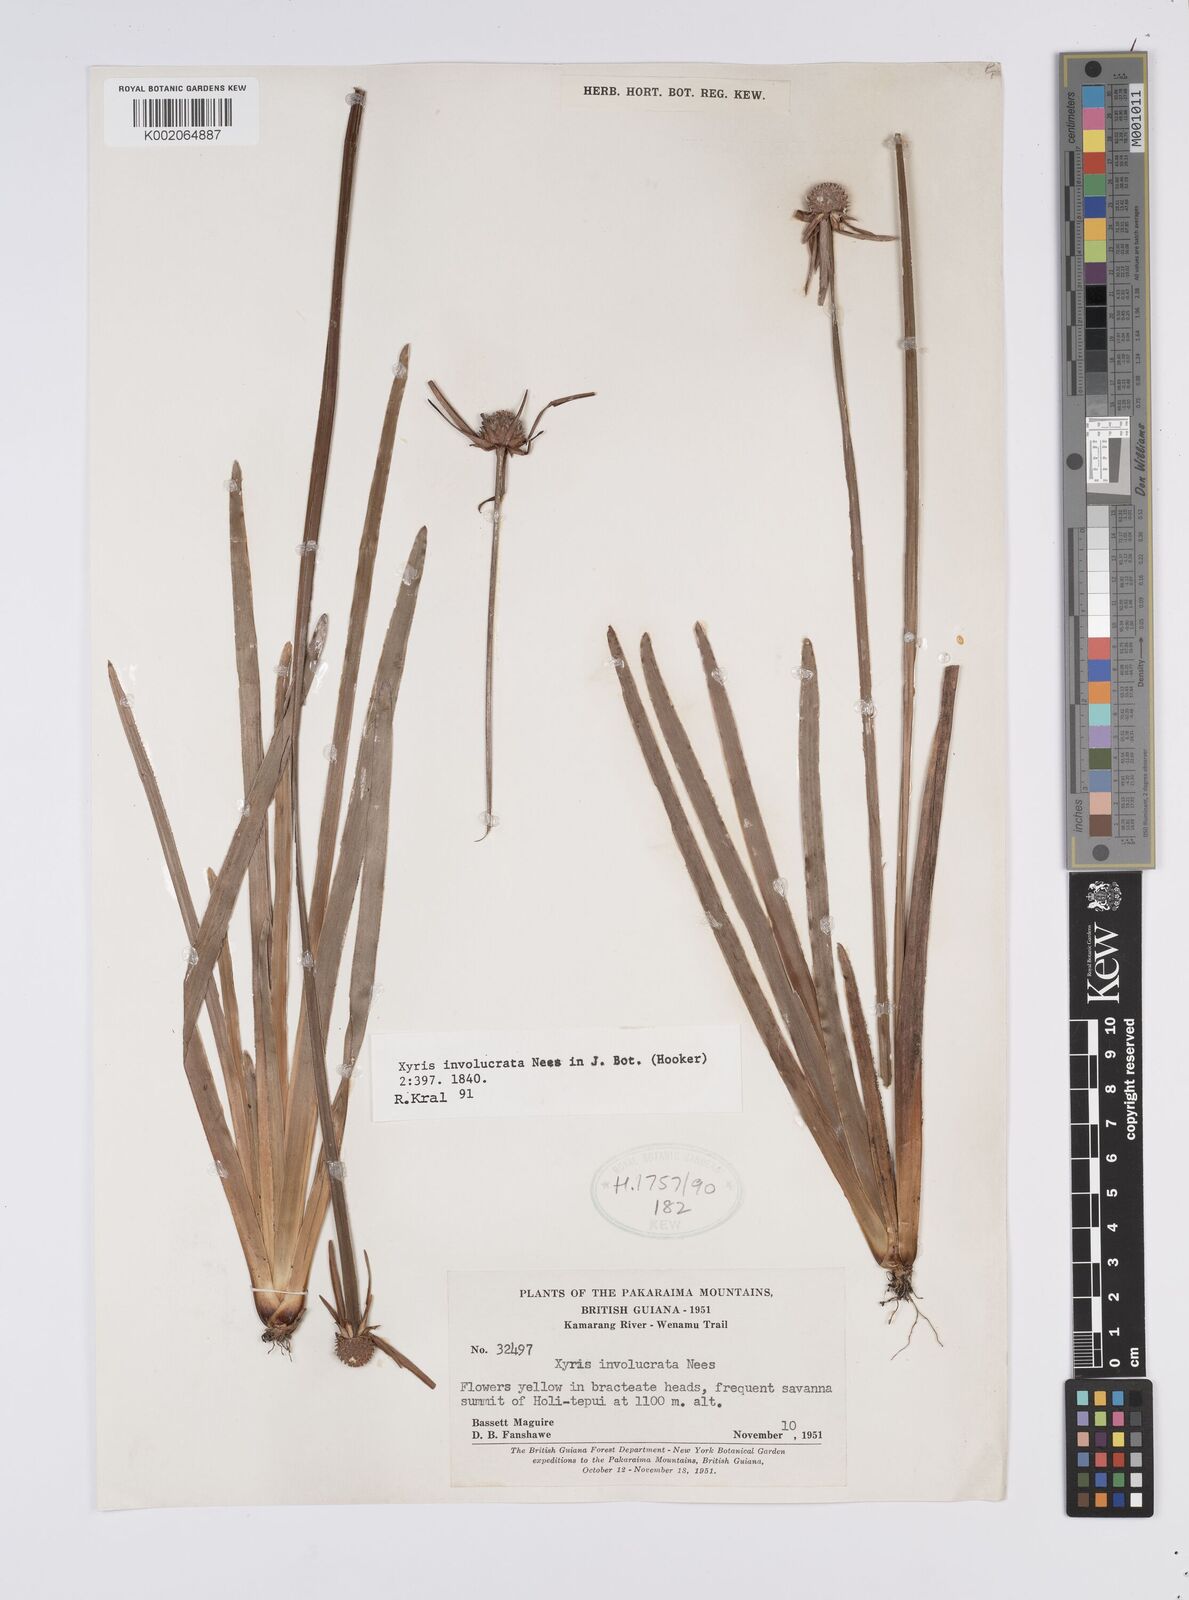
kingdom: Plantae
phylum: Tracheophyta
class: Liliopsida
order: Poales
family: Xyridaceae
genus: Xyris
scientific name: Xyris involucrata
